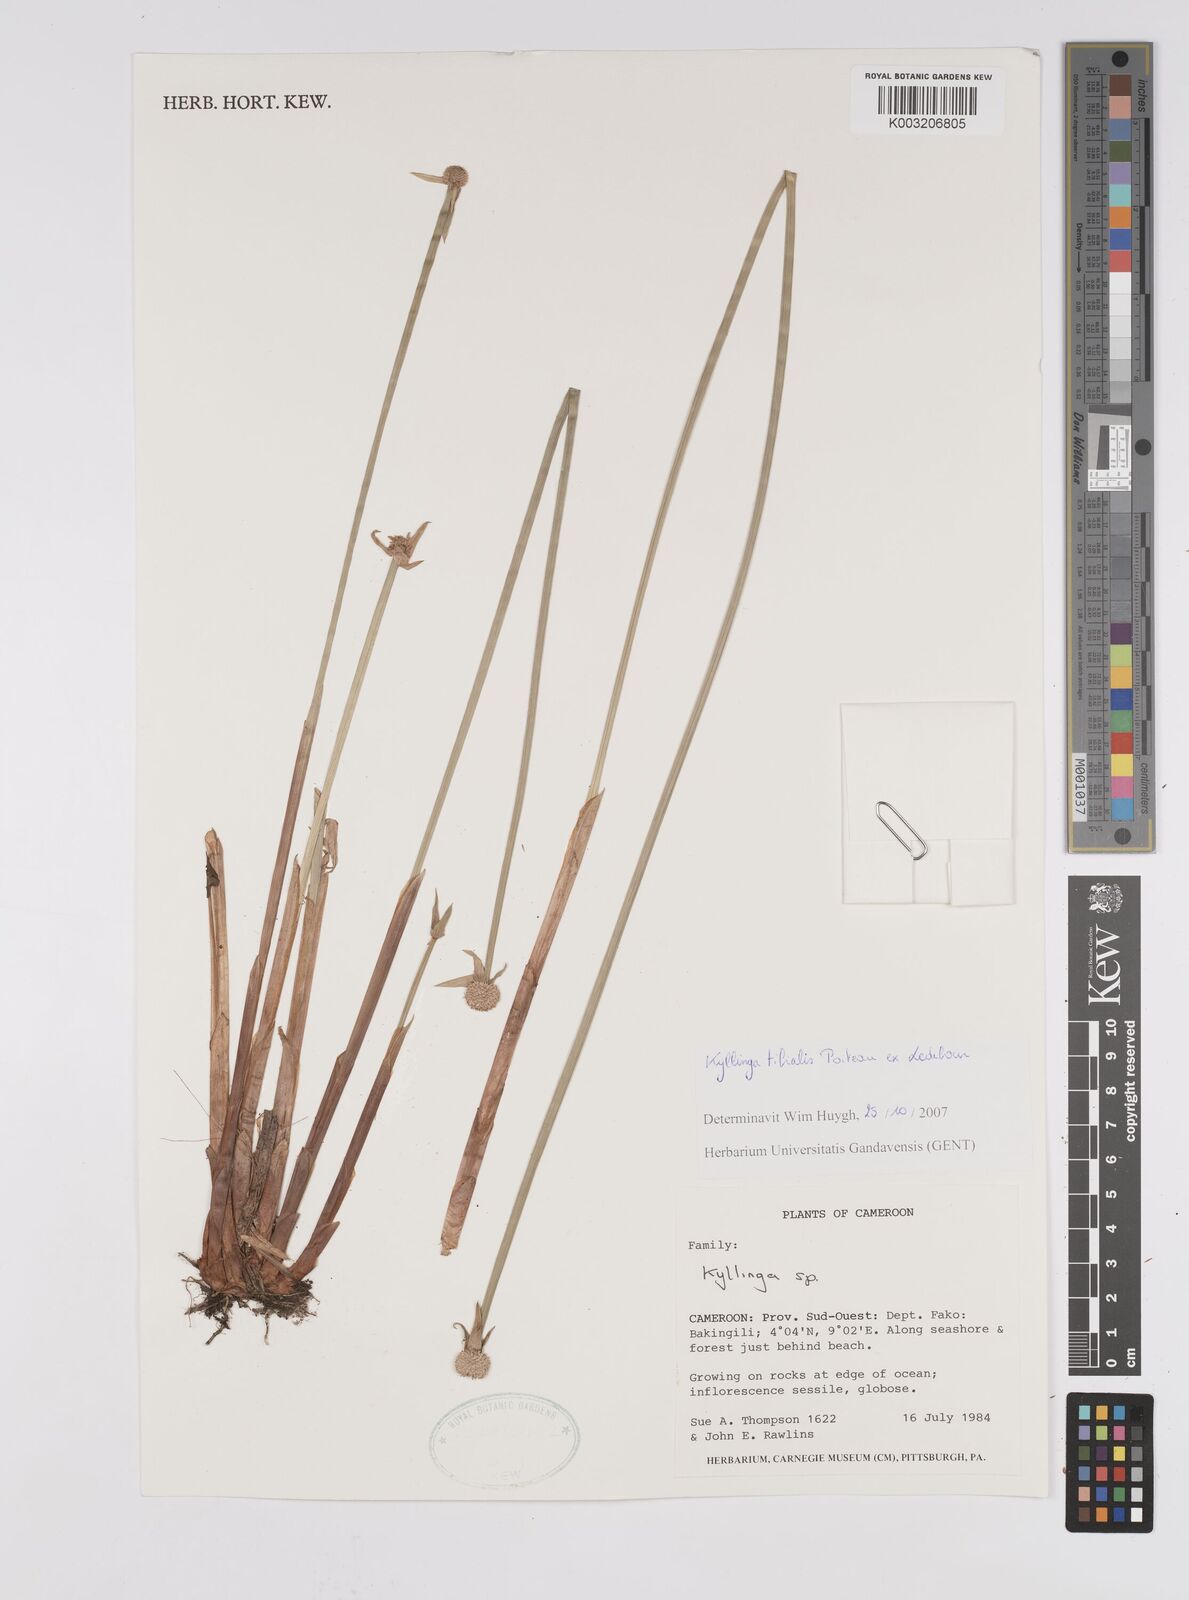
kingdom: Plantae
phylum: Tracheophyta
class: Liliopsida
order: Poales
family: Cyperaceae
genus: Cyperus
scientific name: Cyperus
